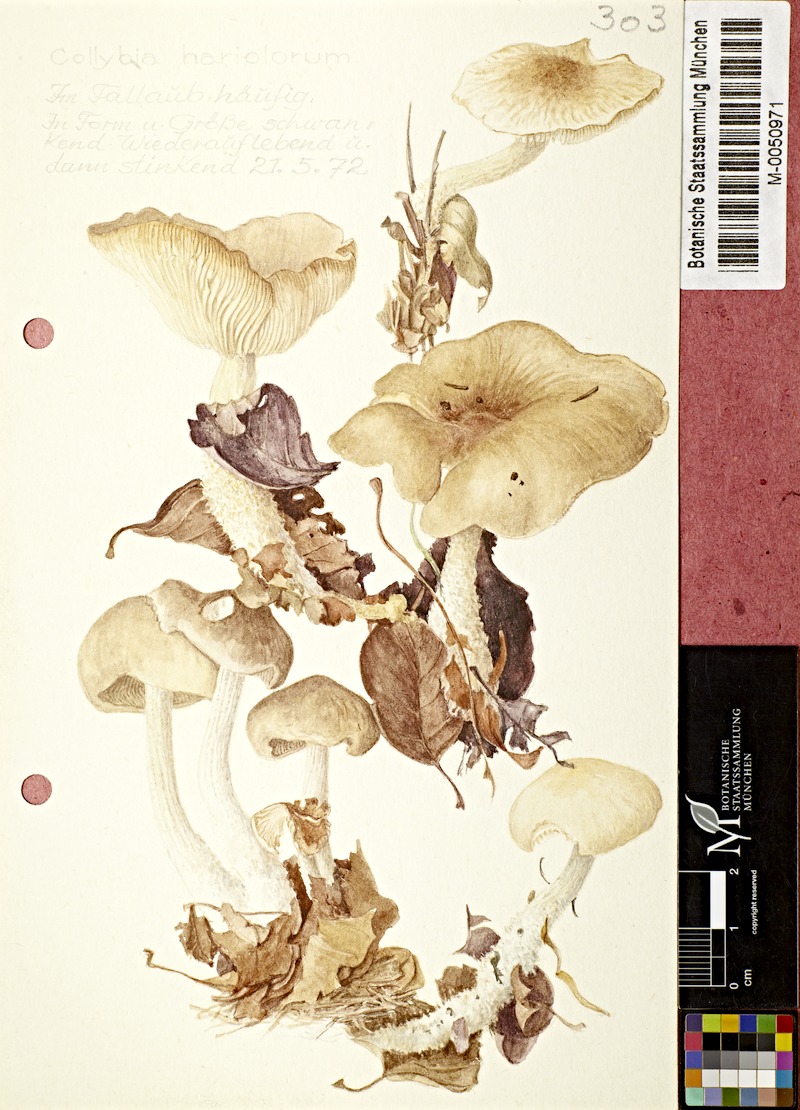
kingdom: Fungi
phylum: Basidiomycota
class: Agaricomycetes
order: Agaricales
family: Omphalotaceae
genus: Gymnopus
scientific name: Gymnopus hariolorum
